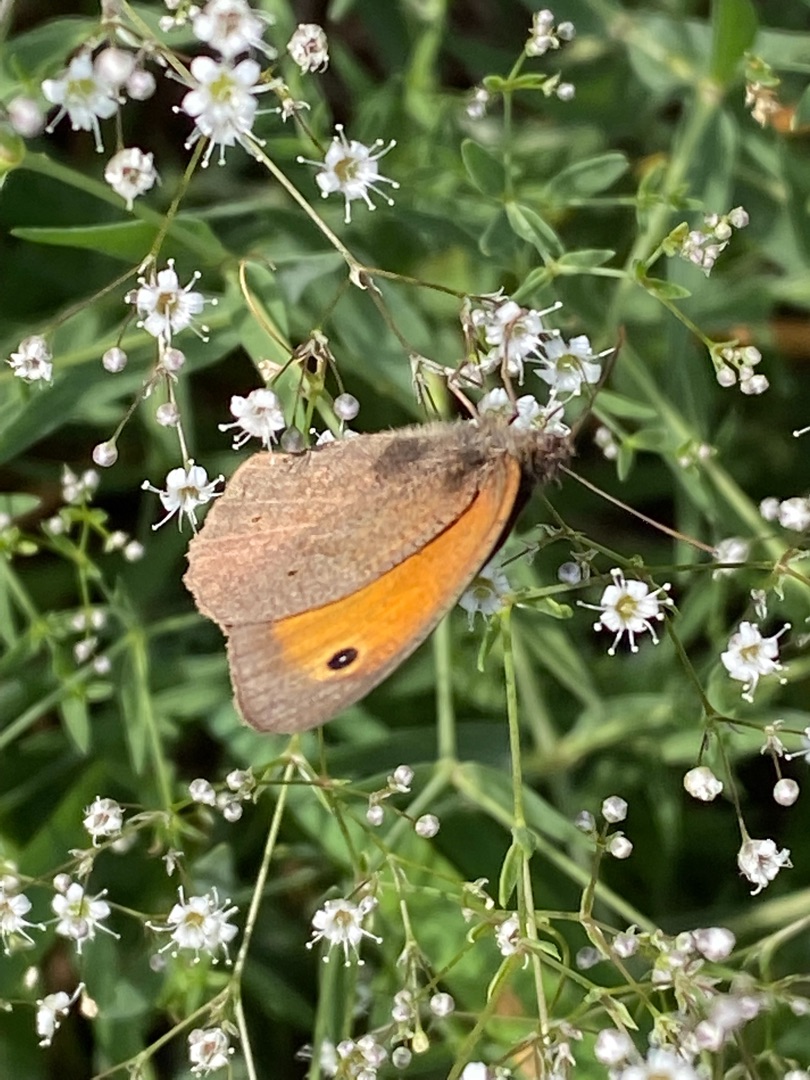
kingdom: Animalia
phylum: Arthropoda
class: Insecta
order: Lepidoptera
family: Nymphalidae
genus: Maniola
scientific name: Maniola jurtina
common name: Græsrandøje
